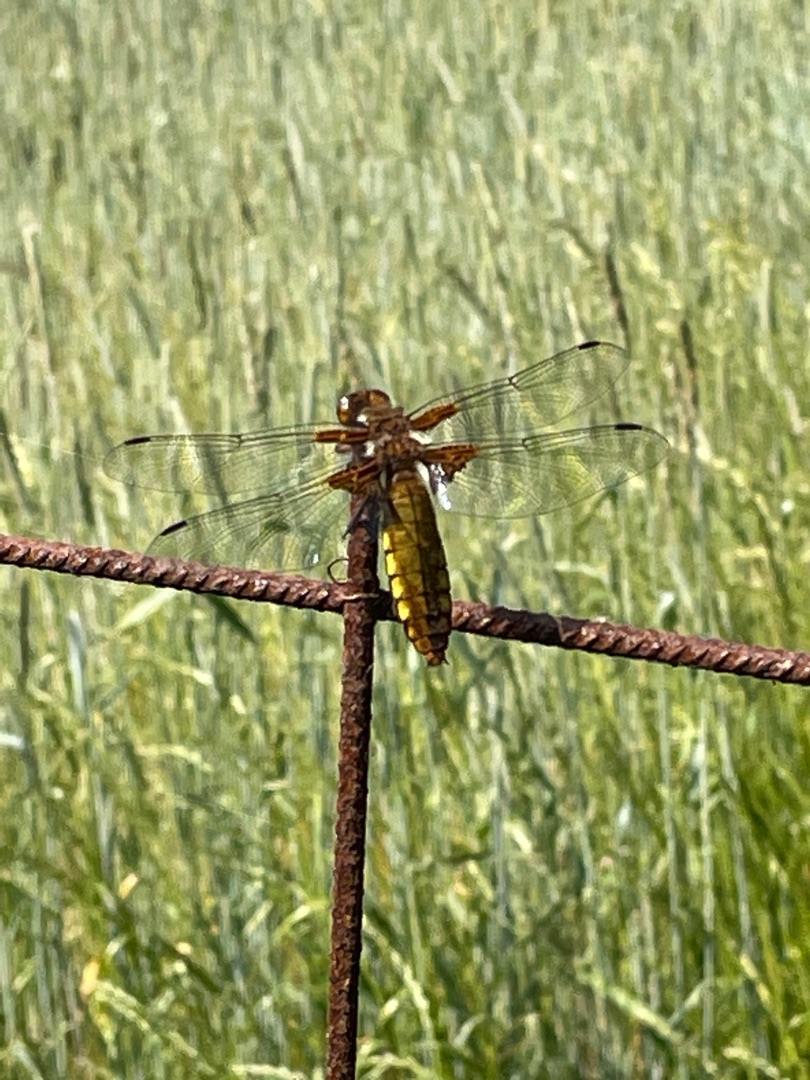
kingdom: Animalia
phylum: Arthropoda
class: Insecta
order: Odonata
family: Libellulidae
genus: Libellula
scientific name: Libellula depressa
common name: Blå libel
